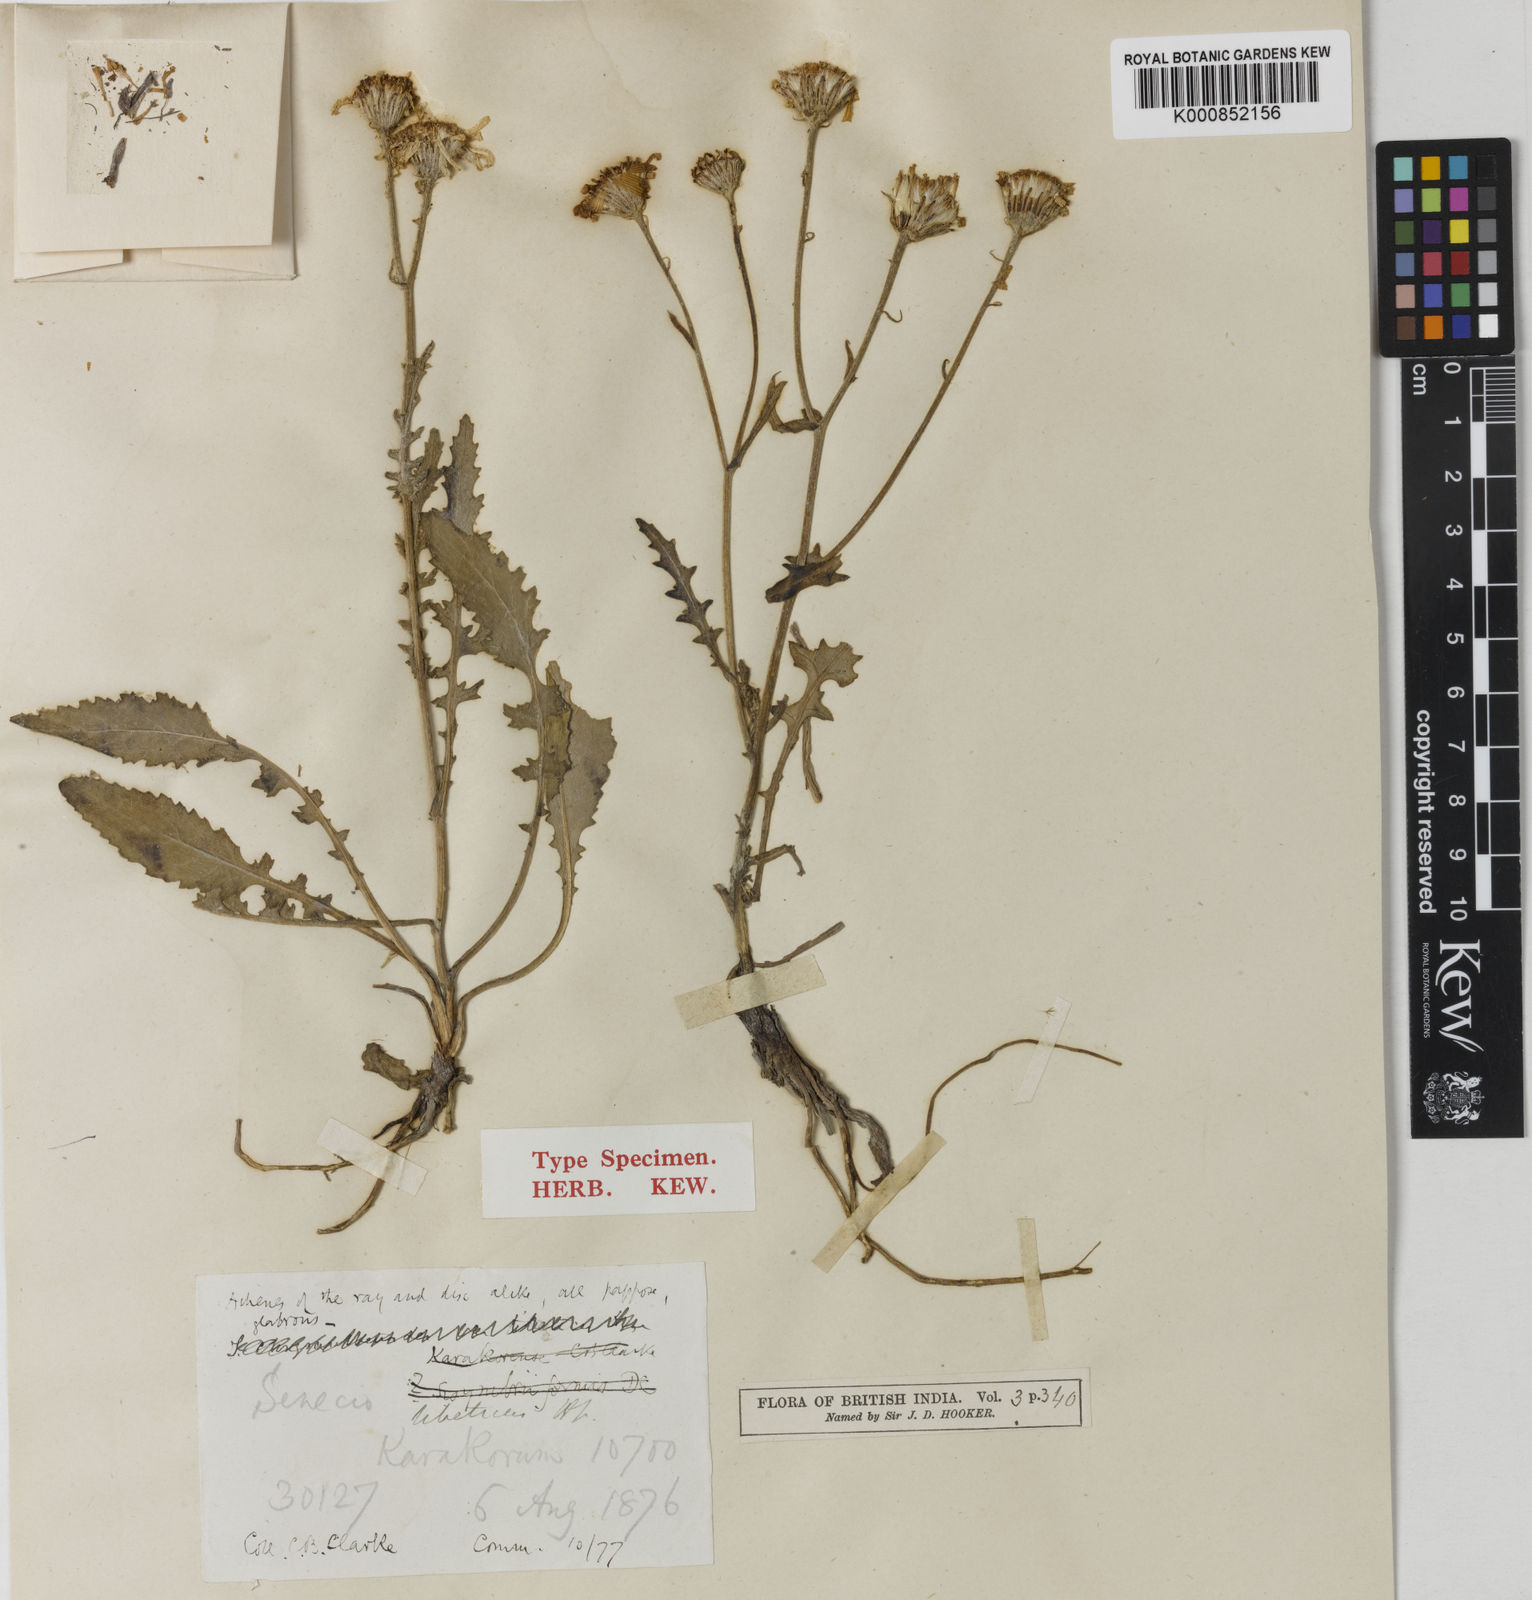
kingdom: Plantae
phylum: Tracheophyta
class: Magnoliopsida
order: Asterales
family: Asteraceae
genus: Jacobaea
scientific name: Jacobaea tibetica
